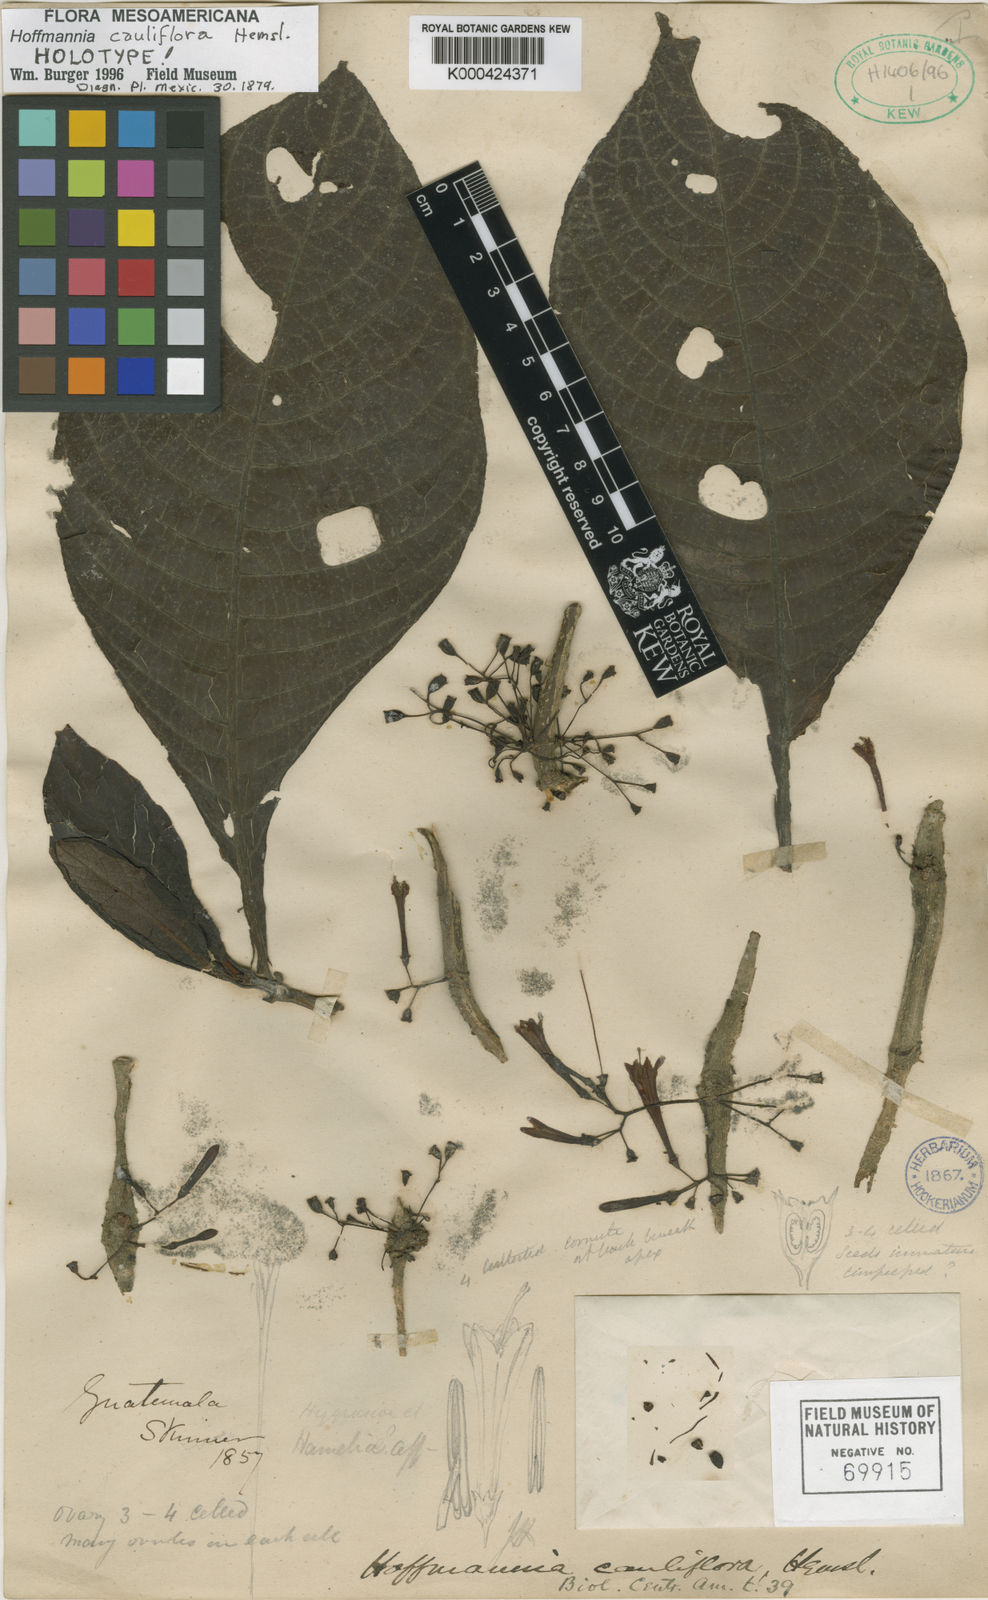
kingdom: Plantae
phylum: Tracheophyta
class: Magnoliopsida
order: Gentianales
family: Rubiaceae
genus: Hoffmannia
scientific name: Hoffmannia cauliflora
